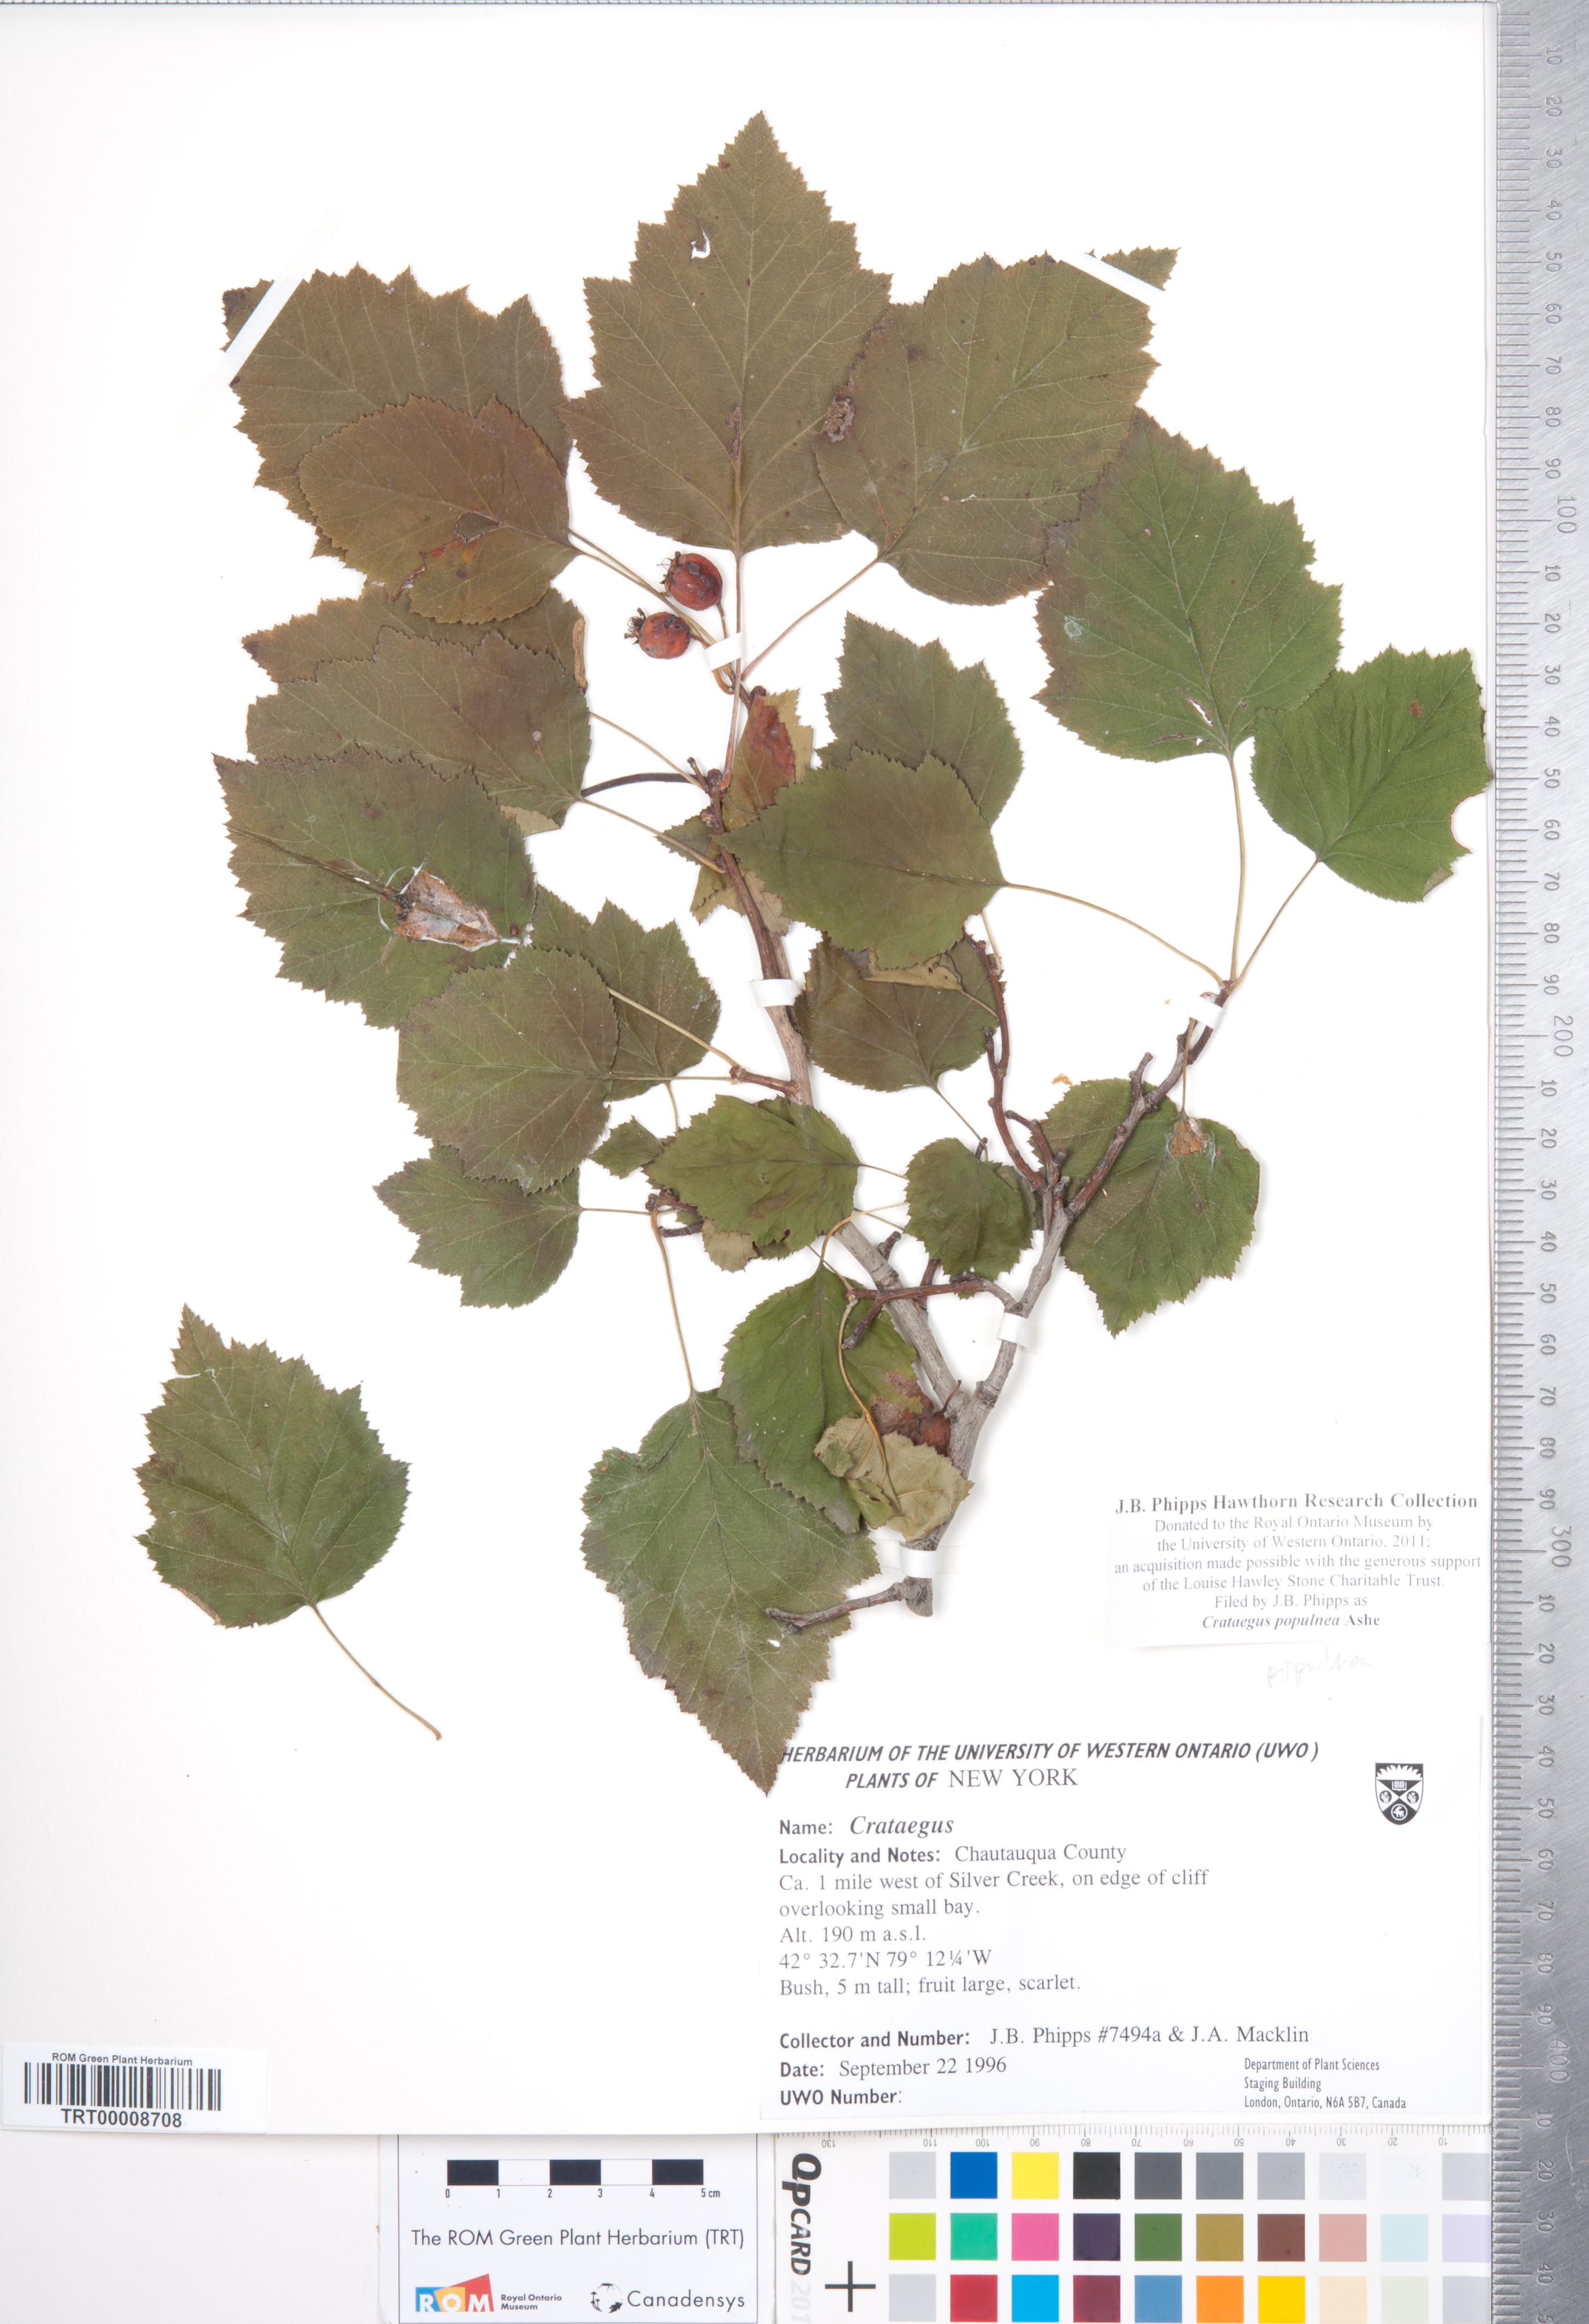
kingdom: Plantae
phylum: Tracheophyta
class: Magnoliopsida
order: Rosales
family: Rosaceae
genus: Crataegus
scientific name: Crataegus populnea
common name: Adorned hawthorn
